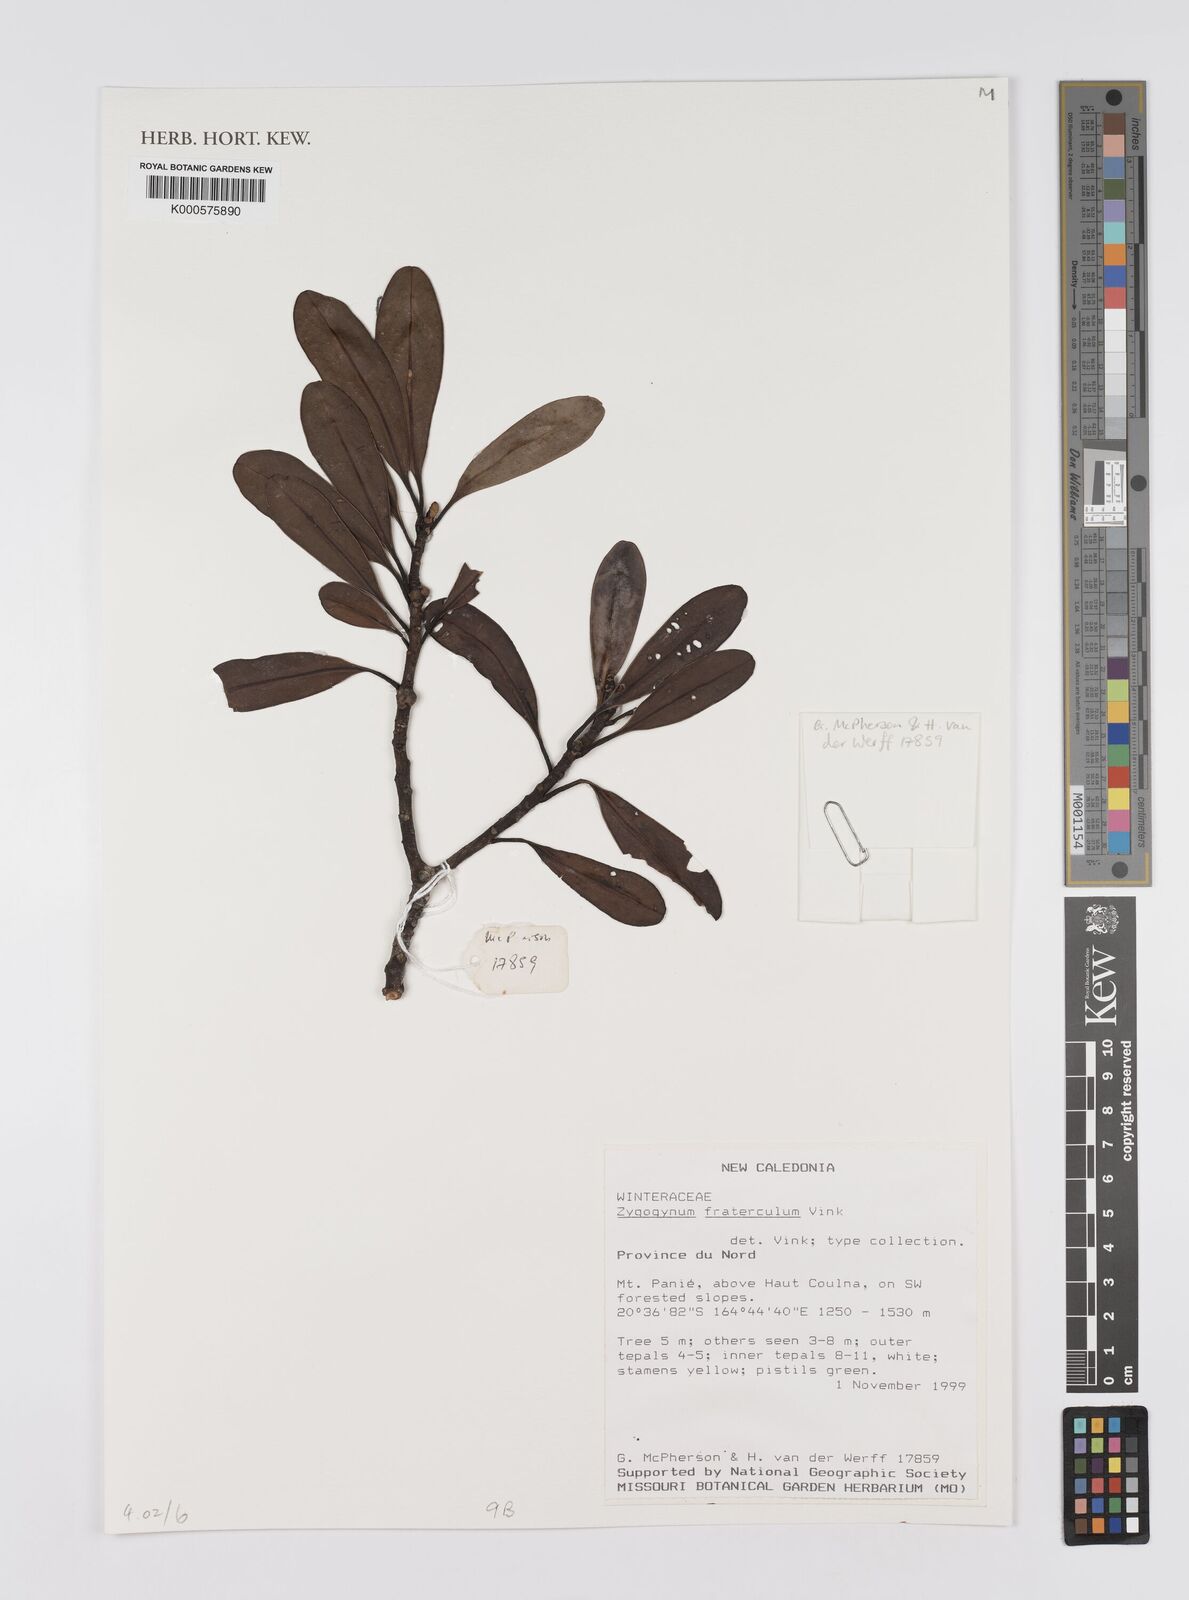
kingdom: Plantae
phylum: Tracheophyta
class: Magnoliopsida
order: Canellales
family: Winteraceae
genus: Zygogynum
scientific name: Zygogynum fraterculus
